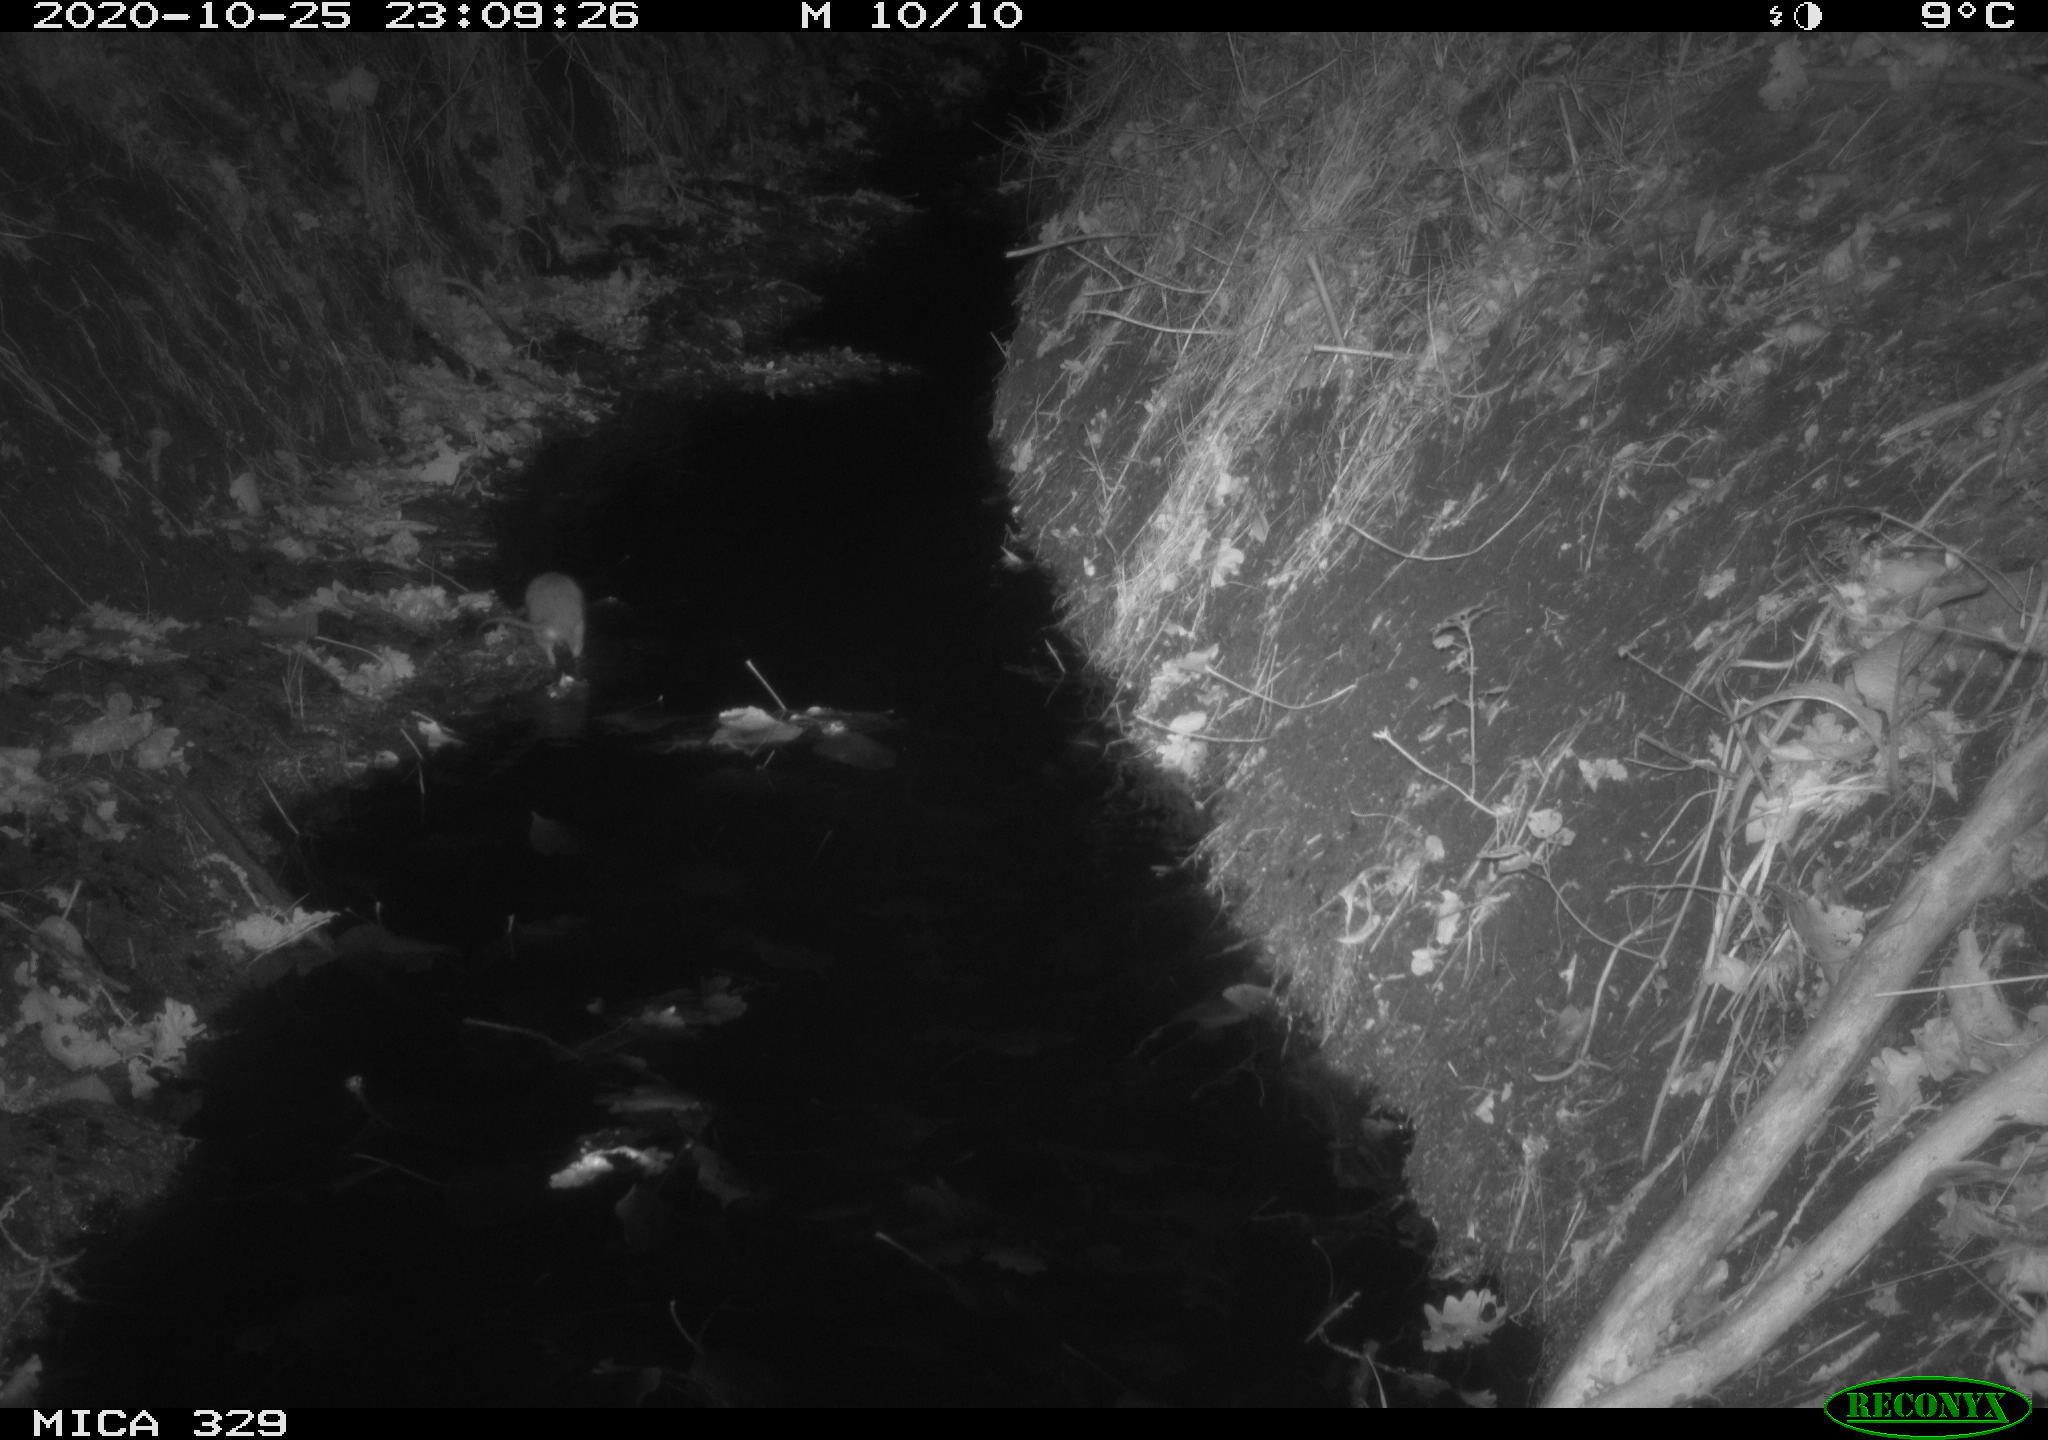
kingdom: Animalia
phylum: Chordata
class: Mammalia
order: Rodentia
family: Muridae
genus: Rattus
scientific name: Rattus norvegicus
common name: Brown rat
